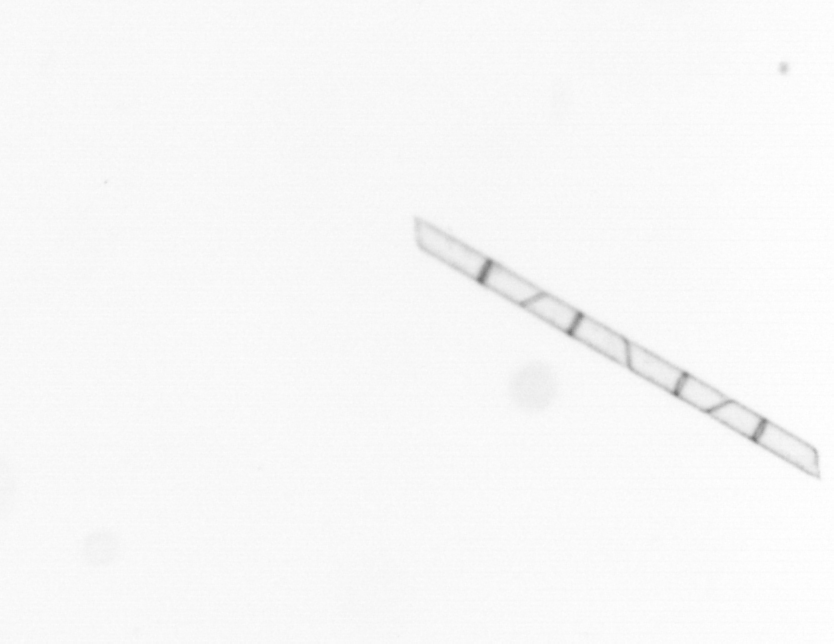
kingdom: Chromista
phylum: Ochrophyta
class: Bacillariophyceae
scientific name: Bacillariophyceae
